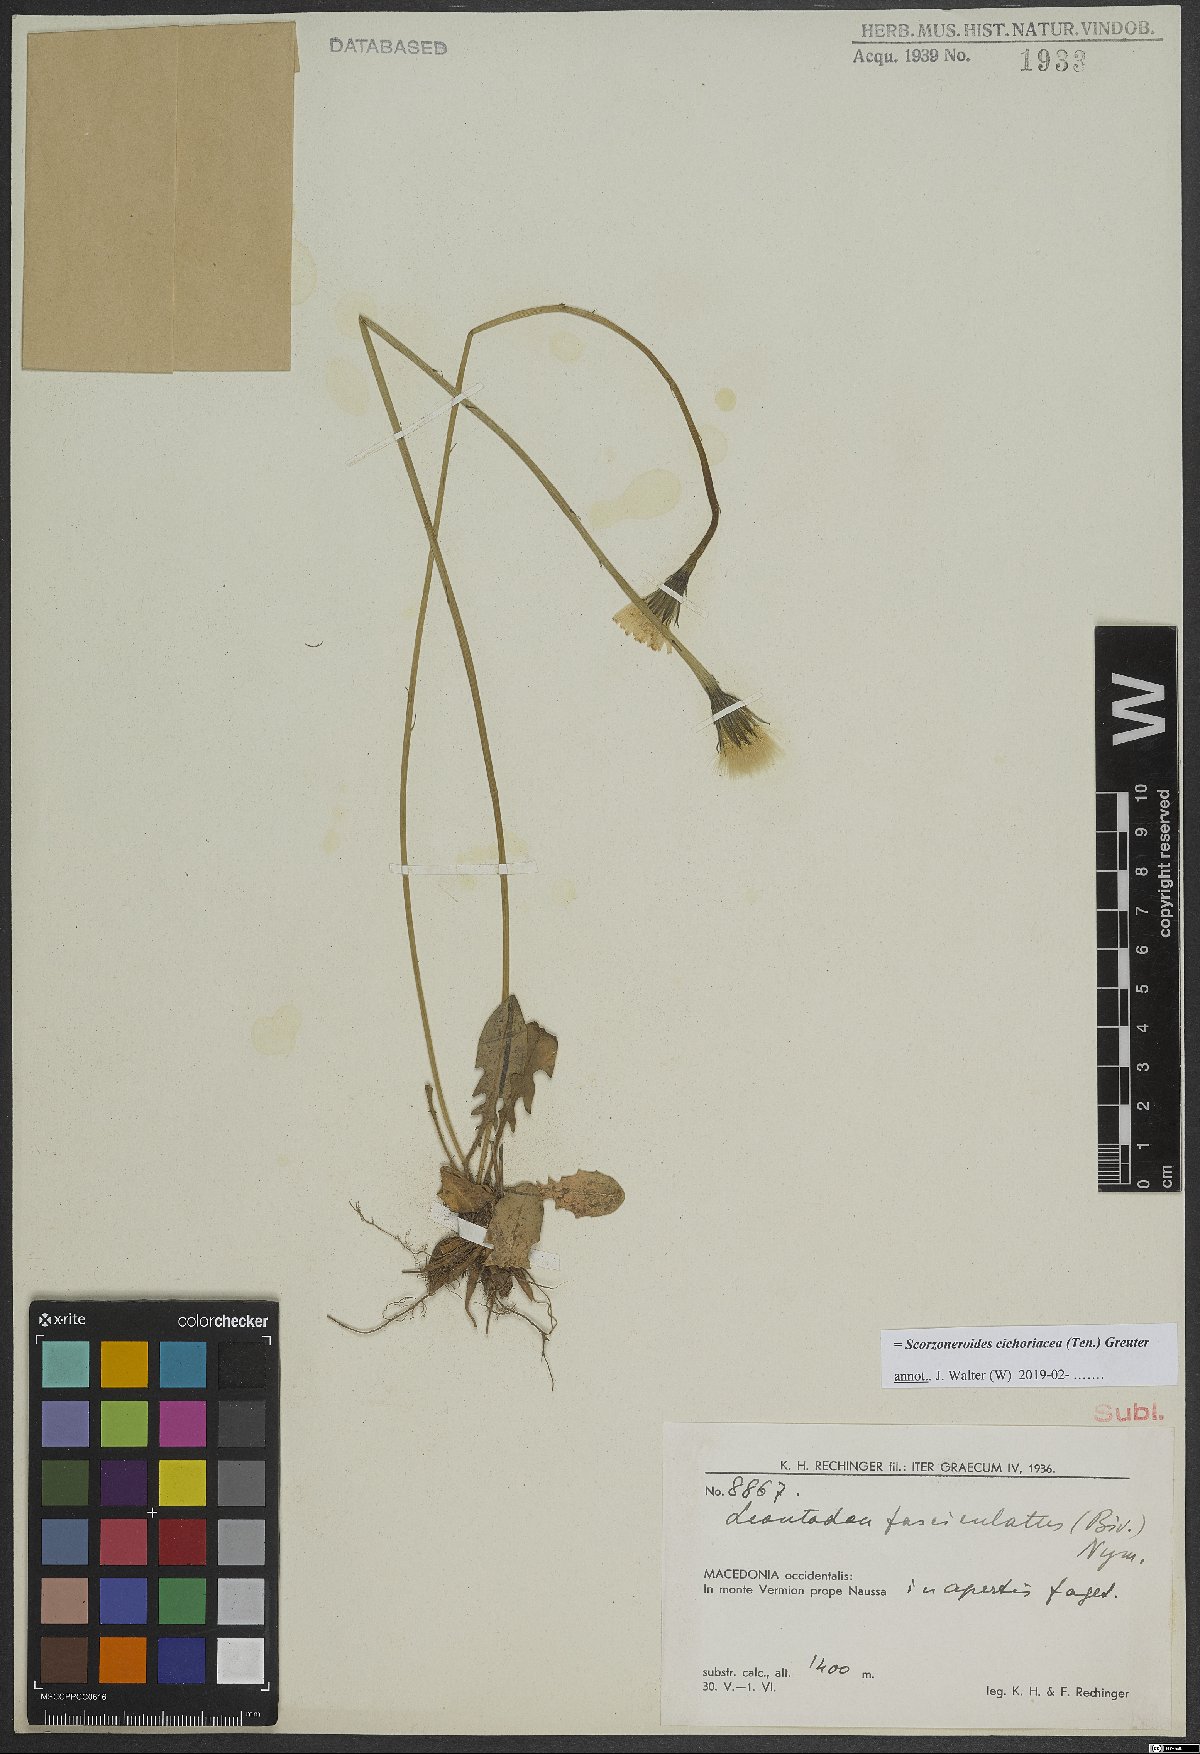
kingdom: Plantae
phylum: Tracheophyta
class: Magnoliopsida
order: Asterales
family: Asteraceae
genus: Scorzoneroides
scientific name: Scorzoneroides cichoriacea
